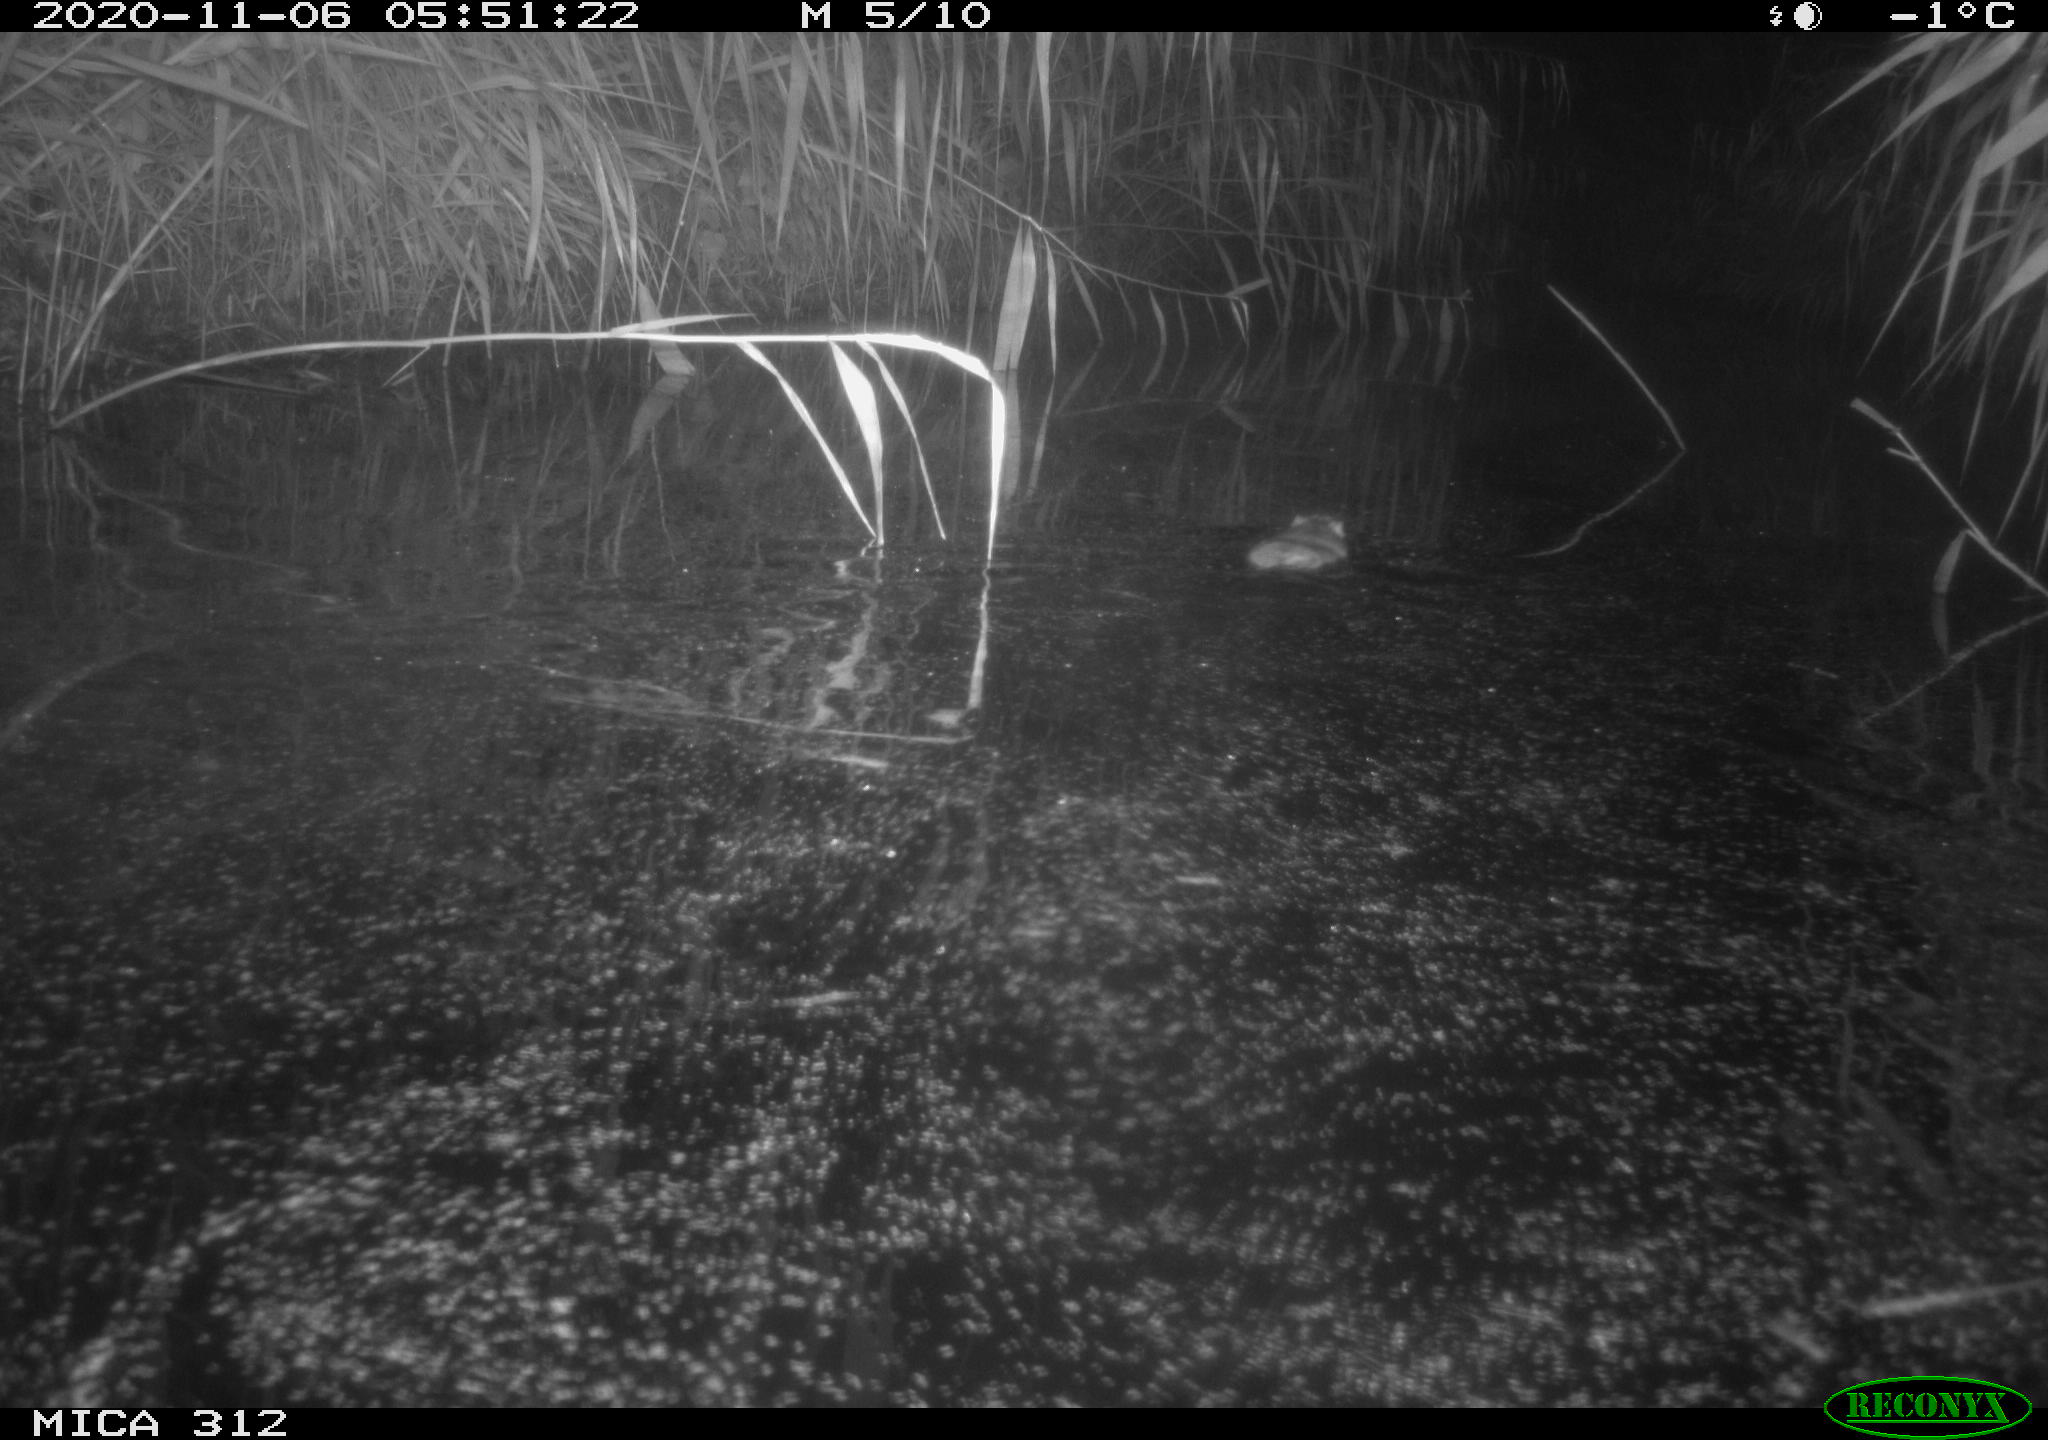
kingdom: Animalia
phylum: Chordata
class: Mammalia
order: Rodentia
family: Muridae
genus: Rattus
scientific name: Rattus norvegicus
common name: Brown rat
